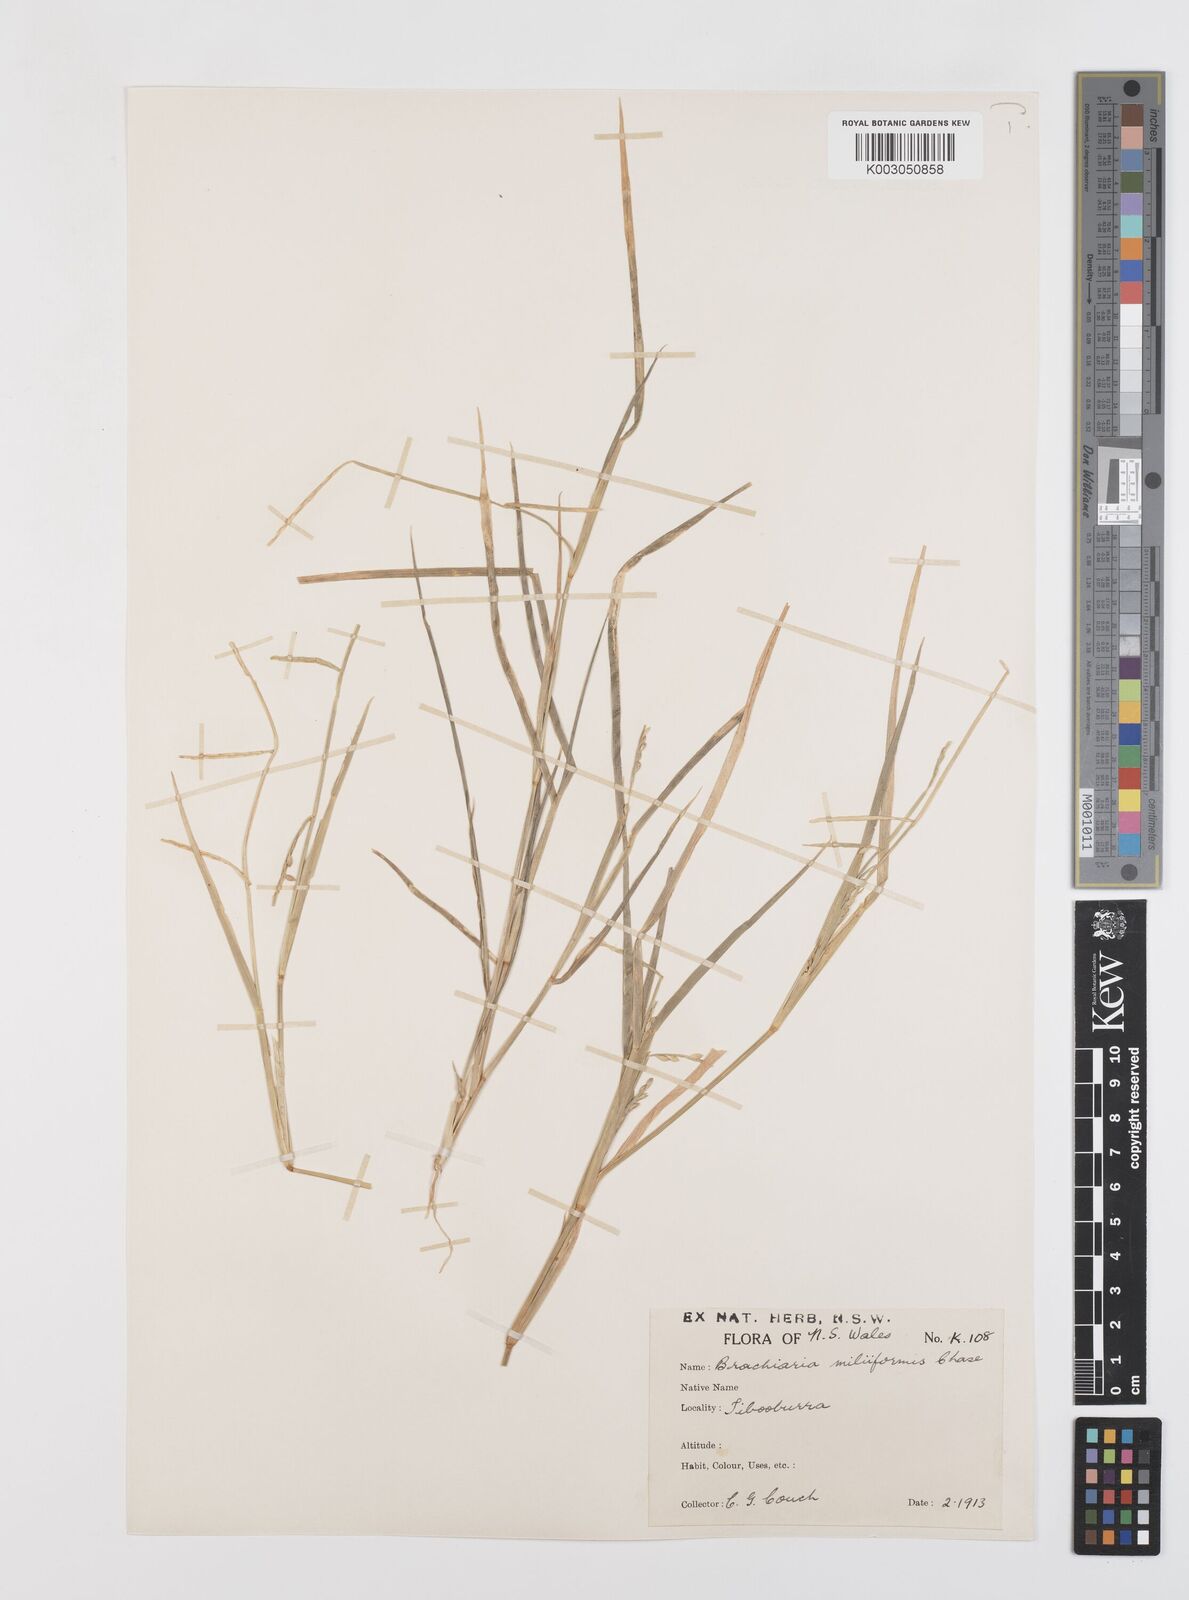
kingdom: Plantae
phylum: Tracheophyta
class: Liliopsida
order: Poales
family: Poaceae
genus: Urochloa
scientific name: Urochloa subquadripara
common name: Armgrass millet
